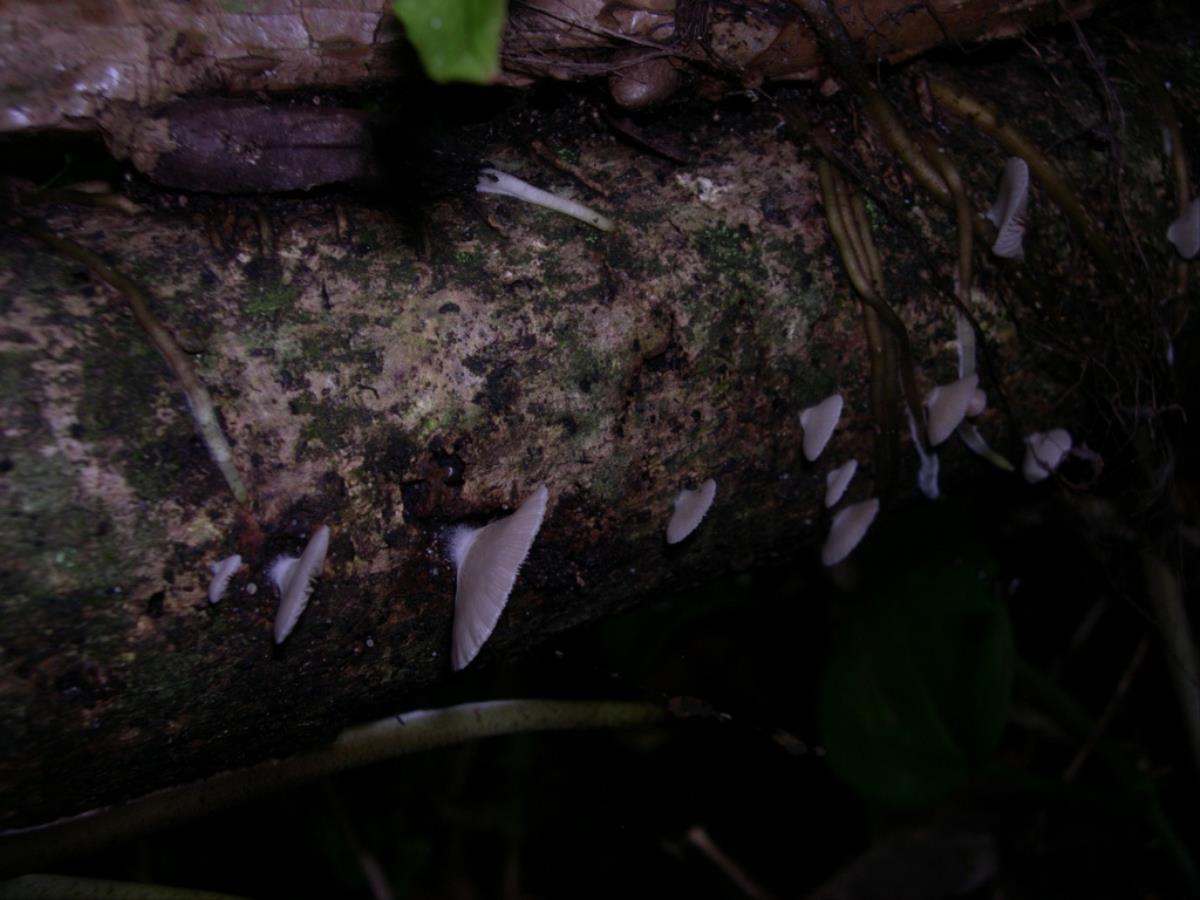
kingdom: Fungi
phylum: Basidiomycota
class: Agaricomycetes
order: Agaricales
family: Crepidotaceae
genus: Crepidotus
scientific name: Crepidotus mollis
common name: Peeling oysterling
